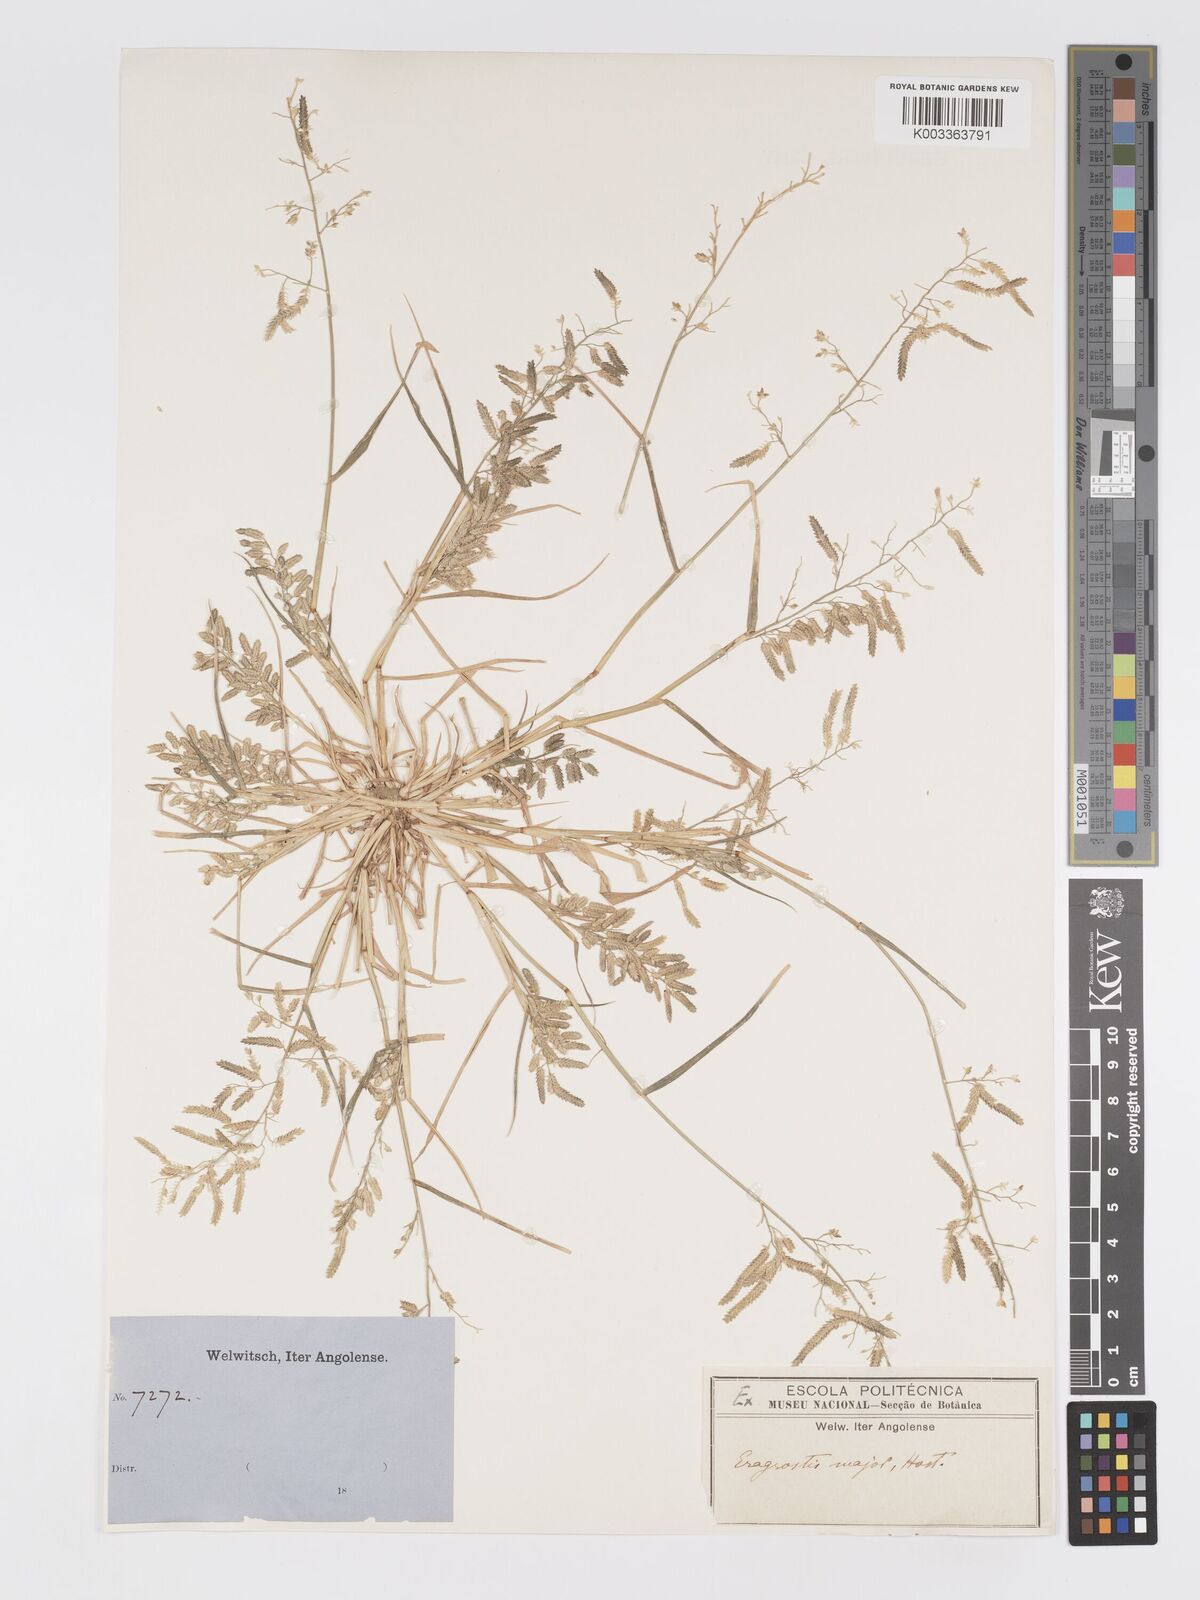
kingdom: Plantae
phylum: Tracheophyta
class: Liliopsida
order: Poales
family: Poaceae
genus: Eragrostis
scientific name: Eragrostis cilianensis
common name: Stinkgrass
